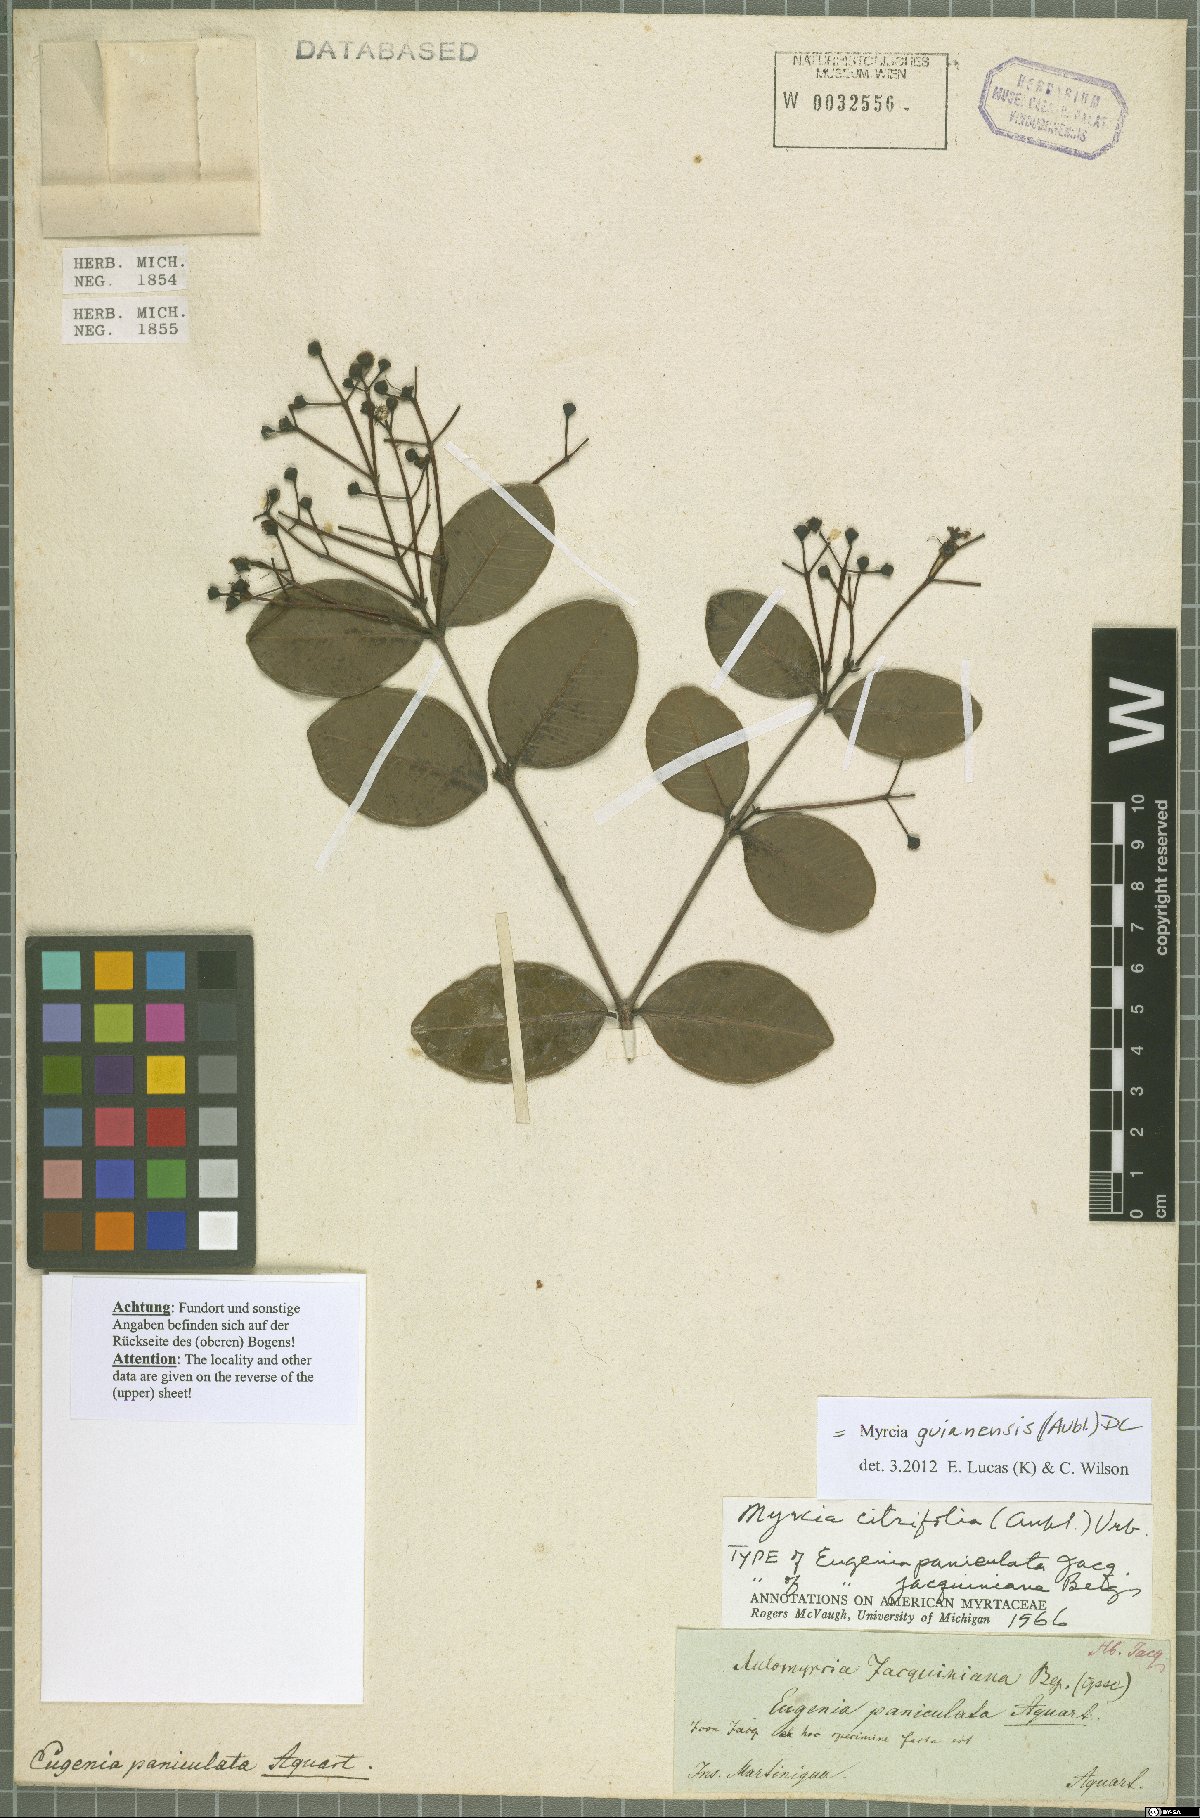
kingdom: Plantae
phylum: Tracheophyta
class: Magnoliopsida
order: Myrtales
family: Myrtaceae
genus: Myrcia
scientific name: Myrcia guianensis
